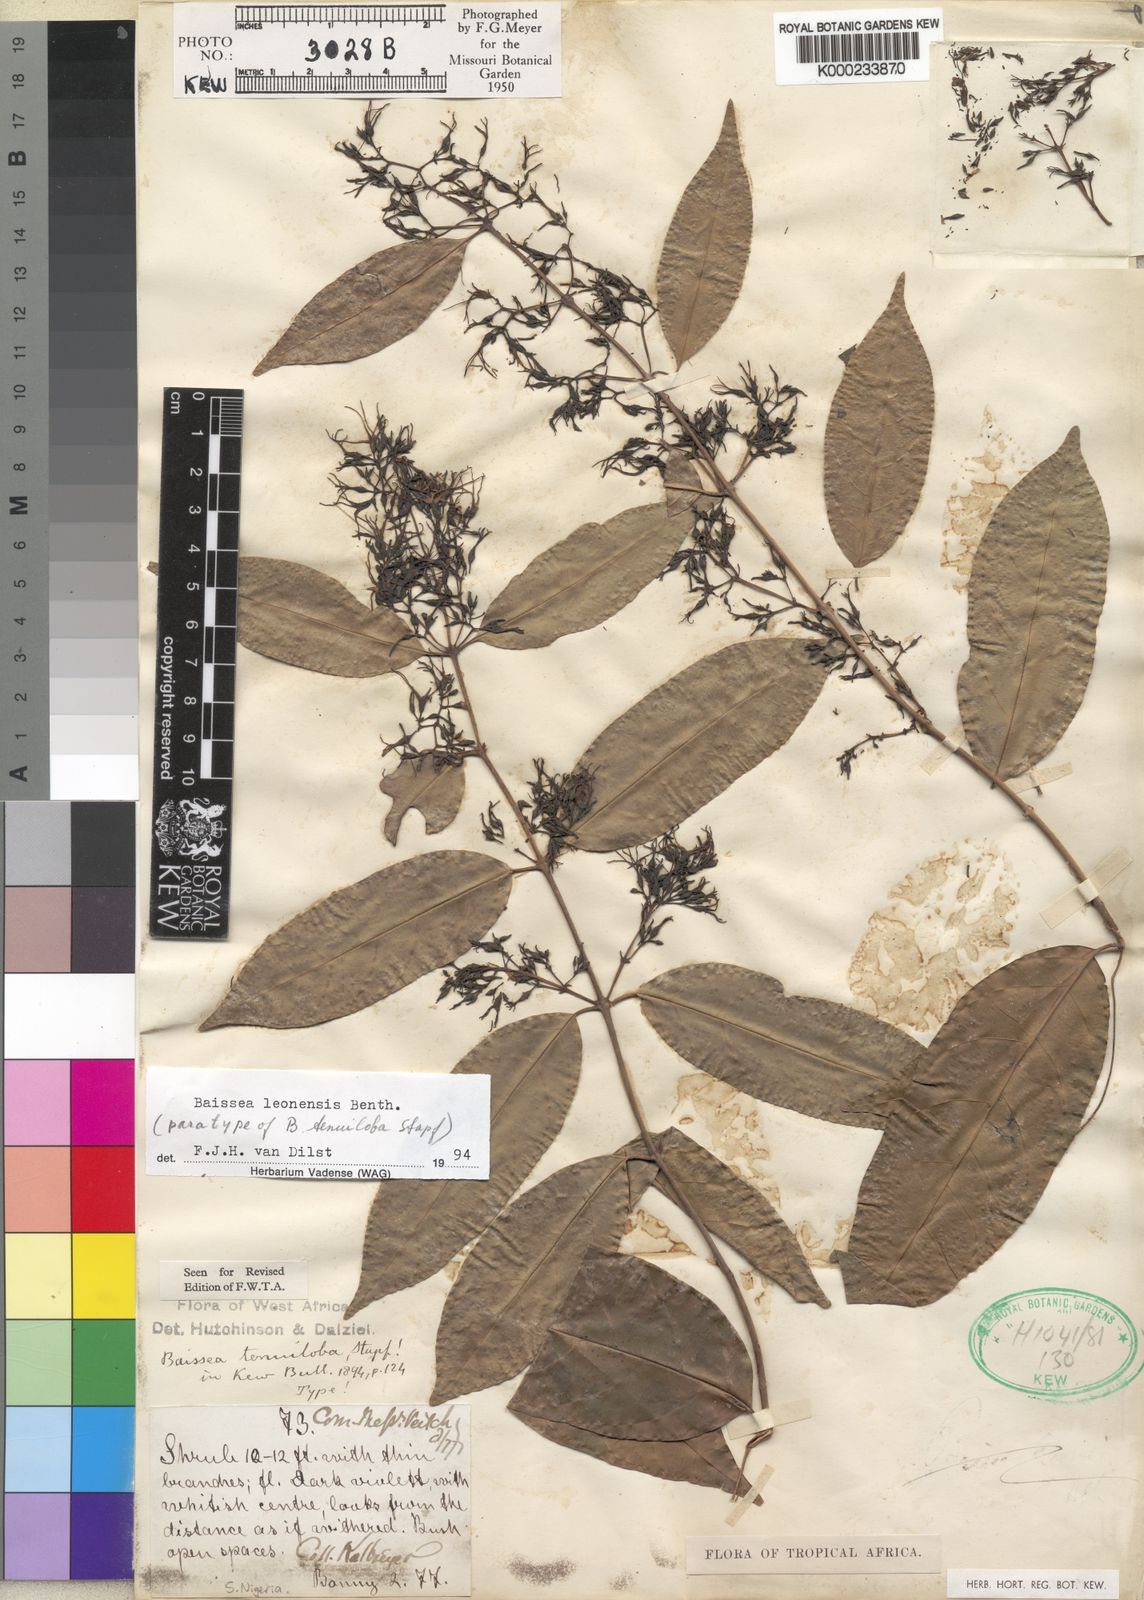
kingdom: Plantae
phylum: Tracheophyta
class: Magnoliopsida
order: Gentianales
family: Apocynaceae
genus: Baissea
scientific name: Baissea leonensis
